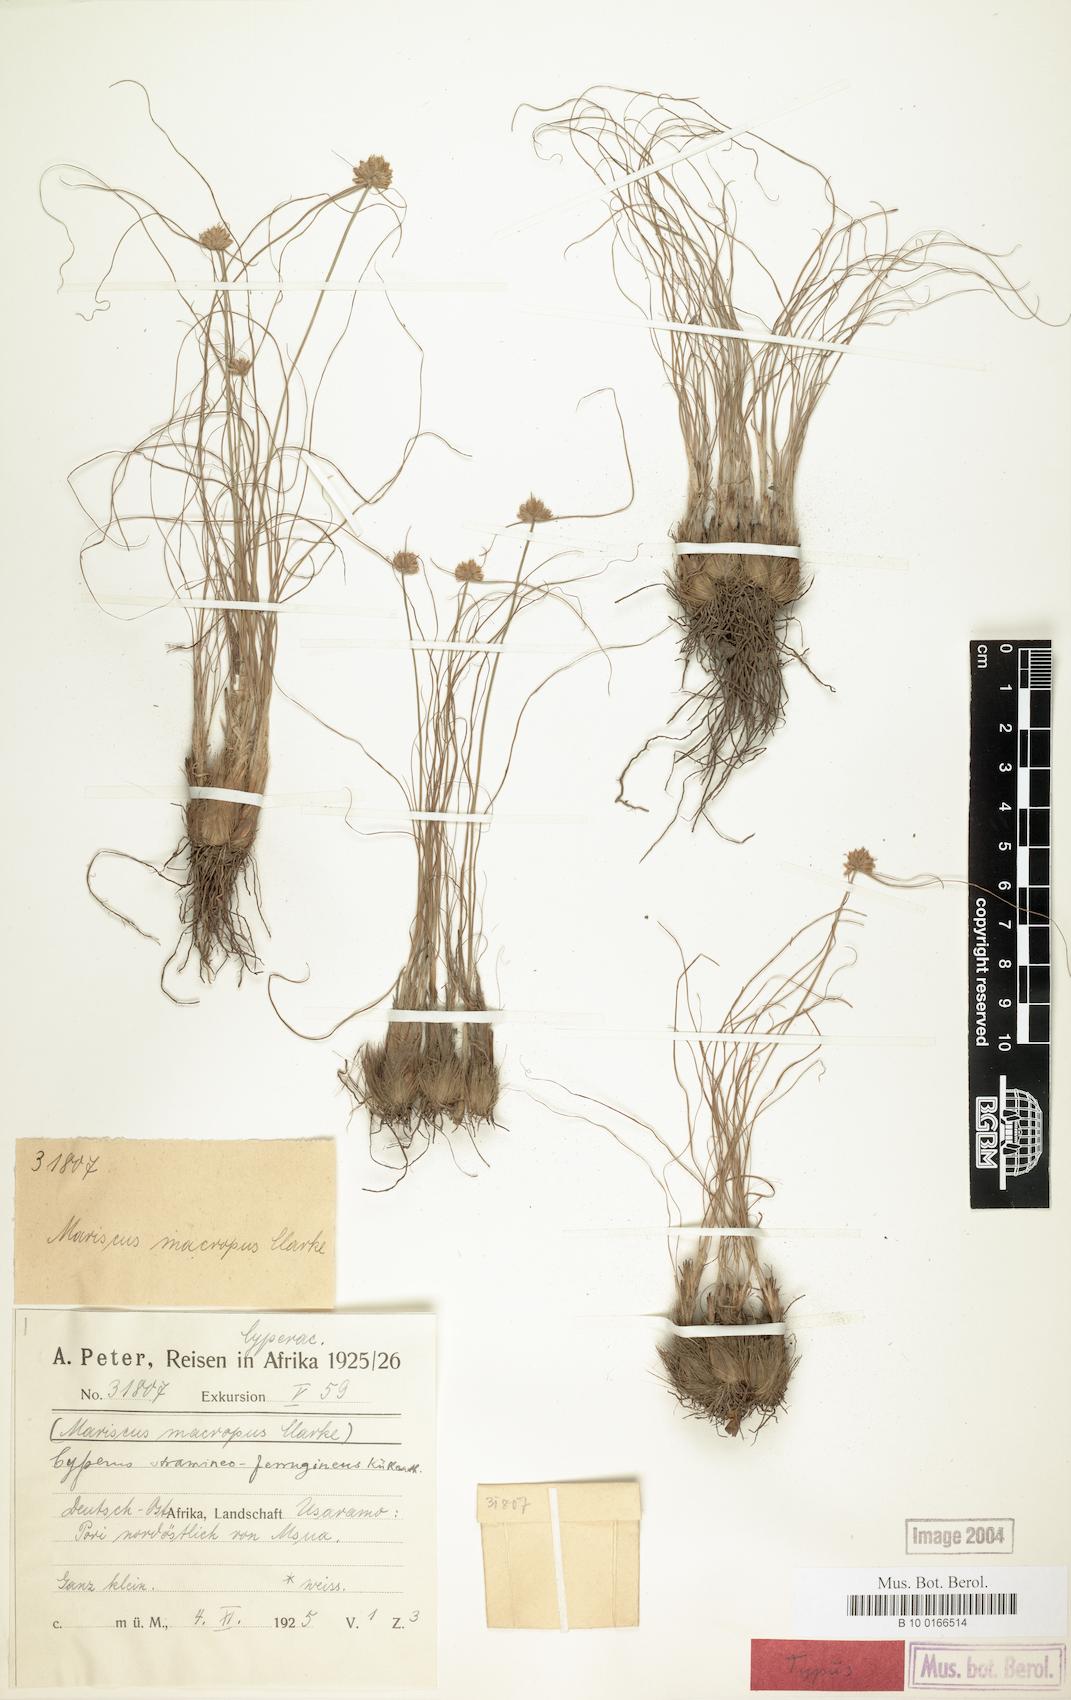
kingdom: Plantae
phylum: Tracheophyta
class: Liliopsida
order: Poales
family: Cyperaceae
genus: Cyperus
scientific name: Cyperus stramineoferrugineus
